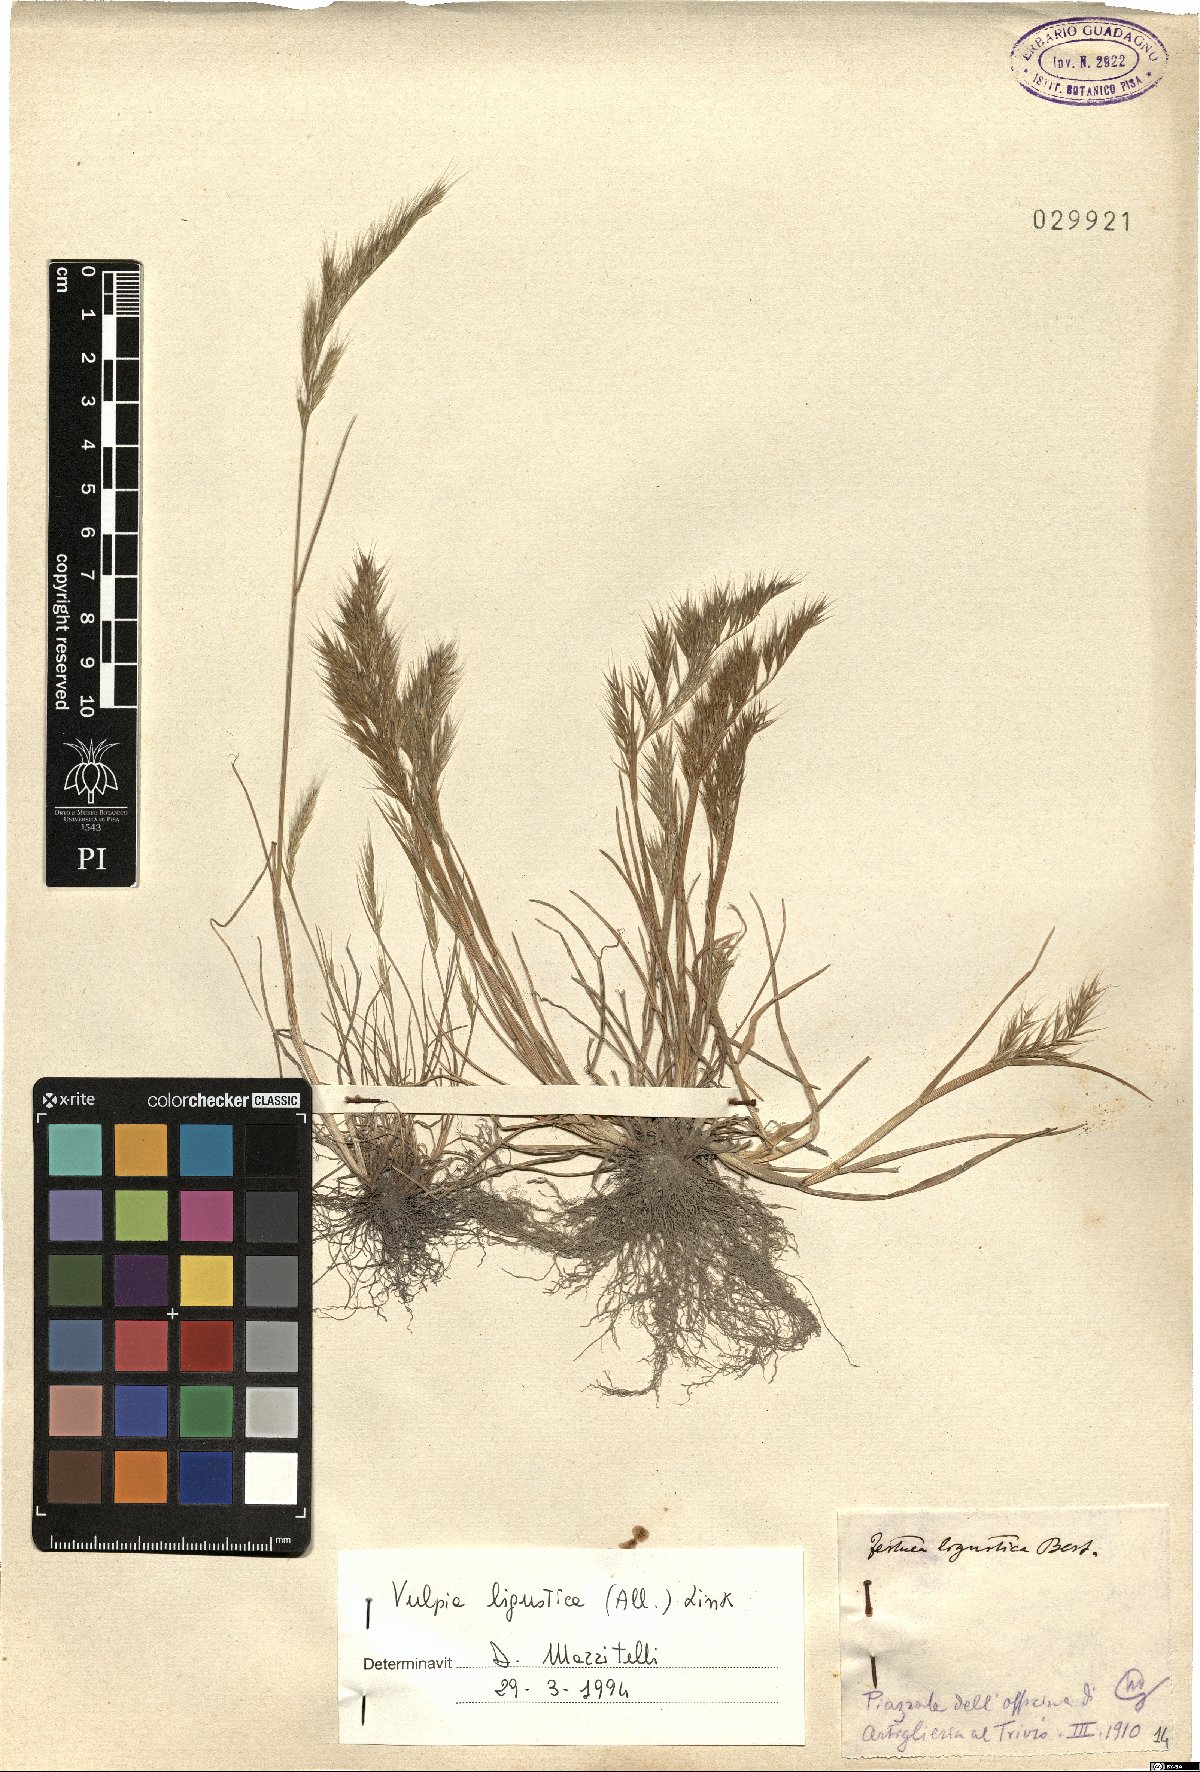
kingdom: Plantae
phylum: Tracheophyta
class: Liliopsida
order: Poales
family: Poaceae
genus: Festuca
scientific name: Festuca ligustica
